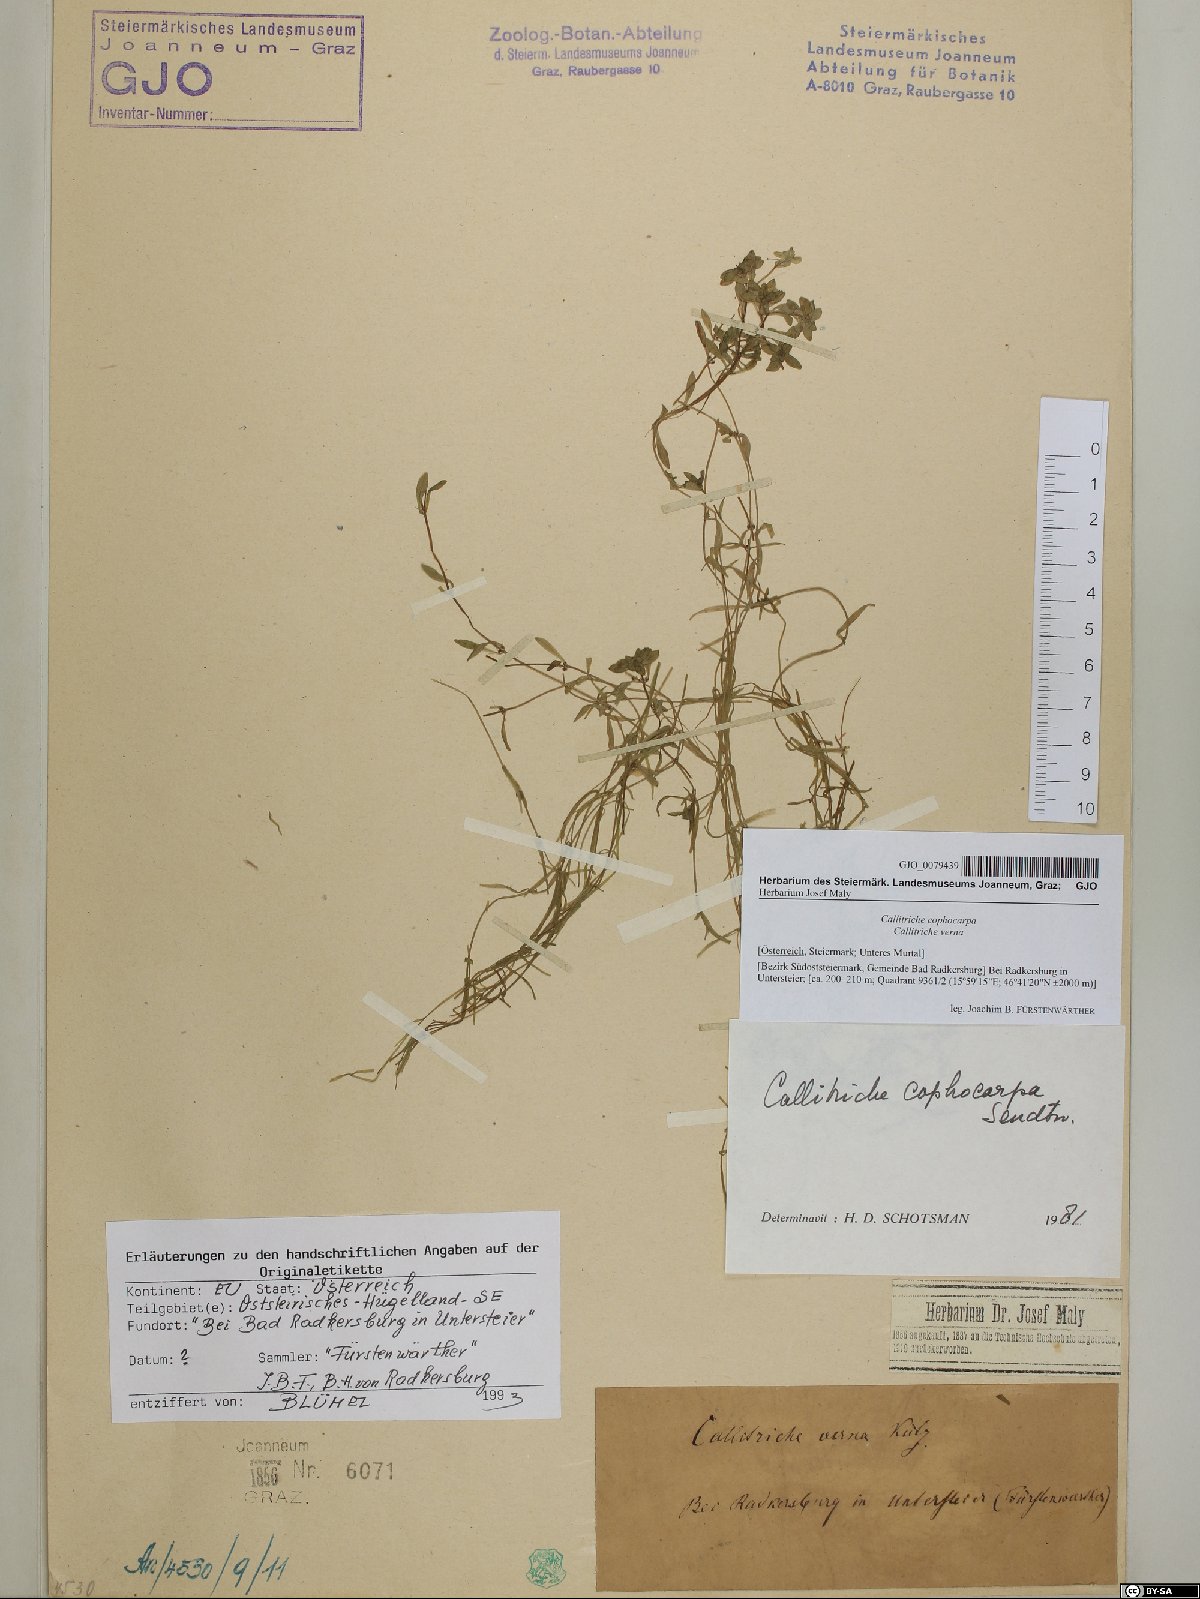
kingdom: Plantae
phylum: Tracheophyta
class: Magnoliopsida
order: Lamiales
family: Plantaginaceae
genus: Callitriche
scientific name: Callitriche cophocarpa
